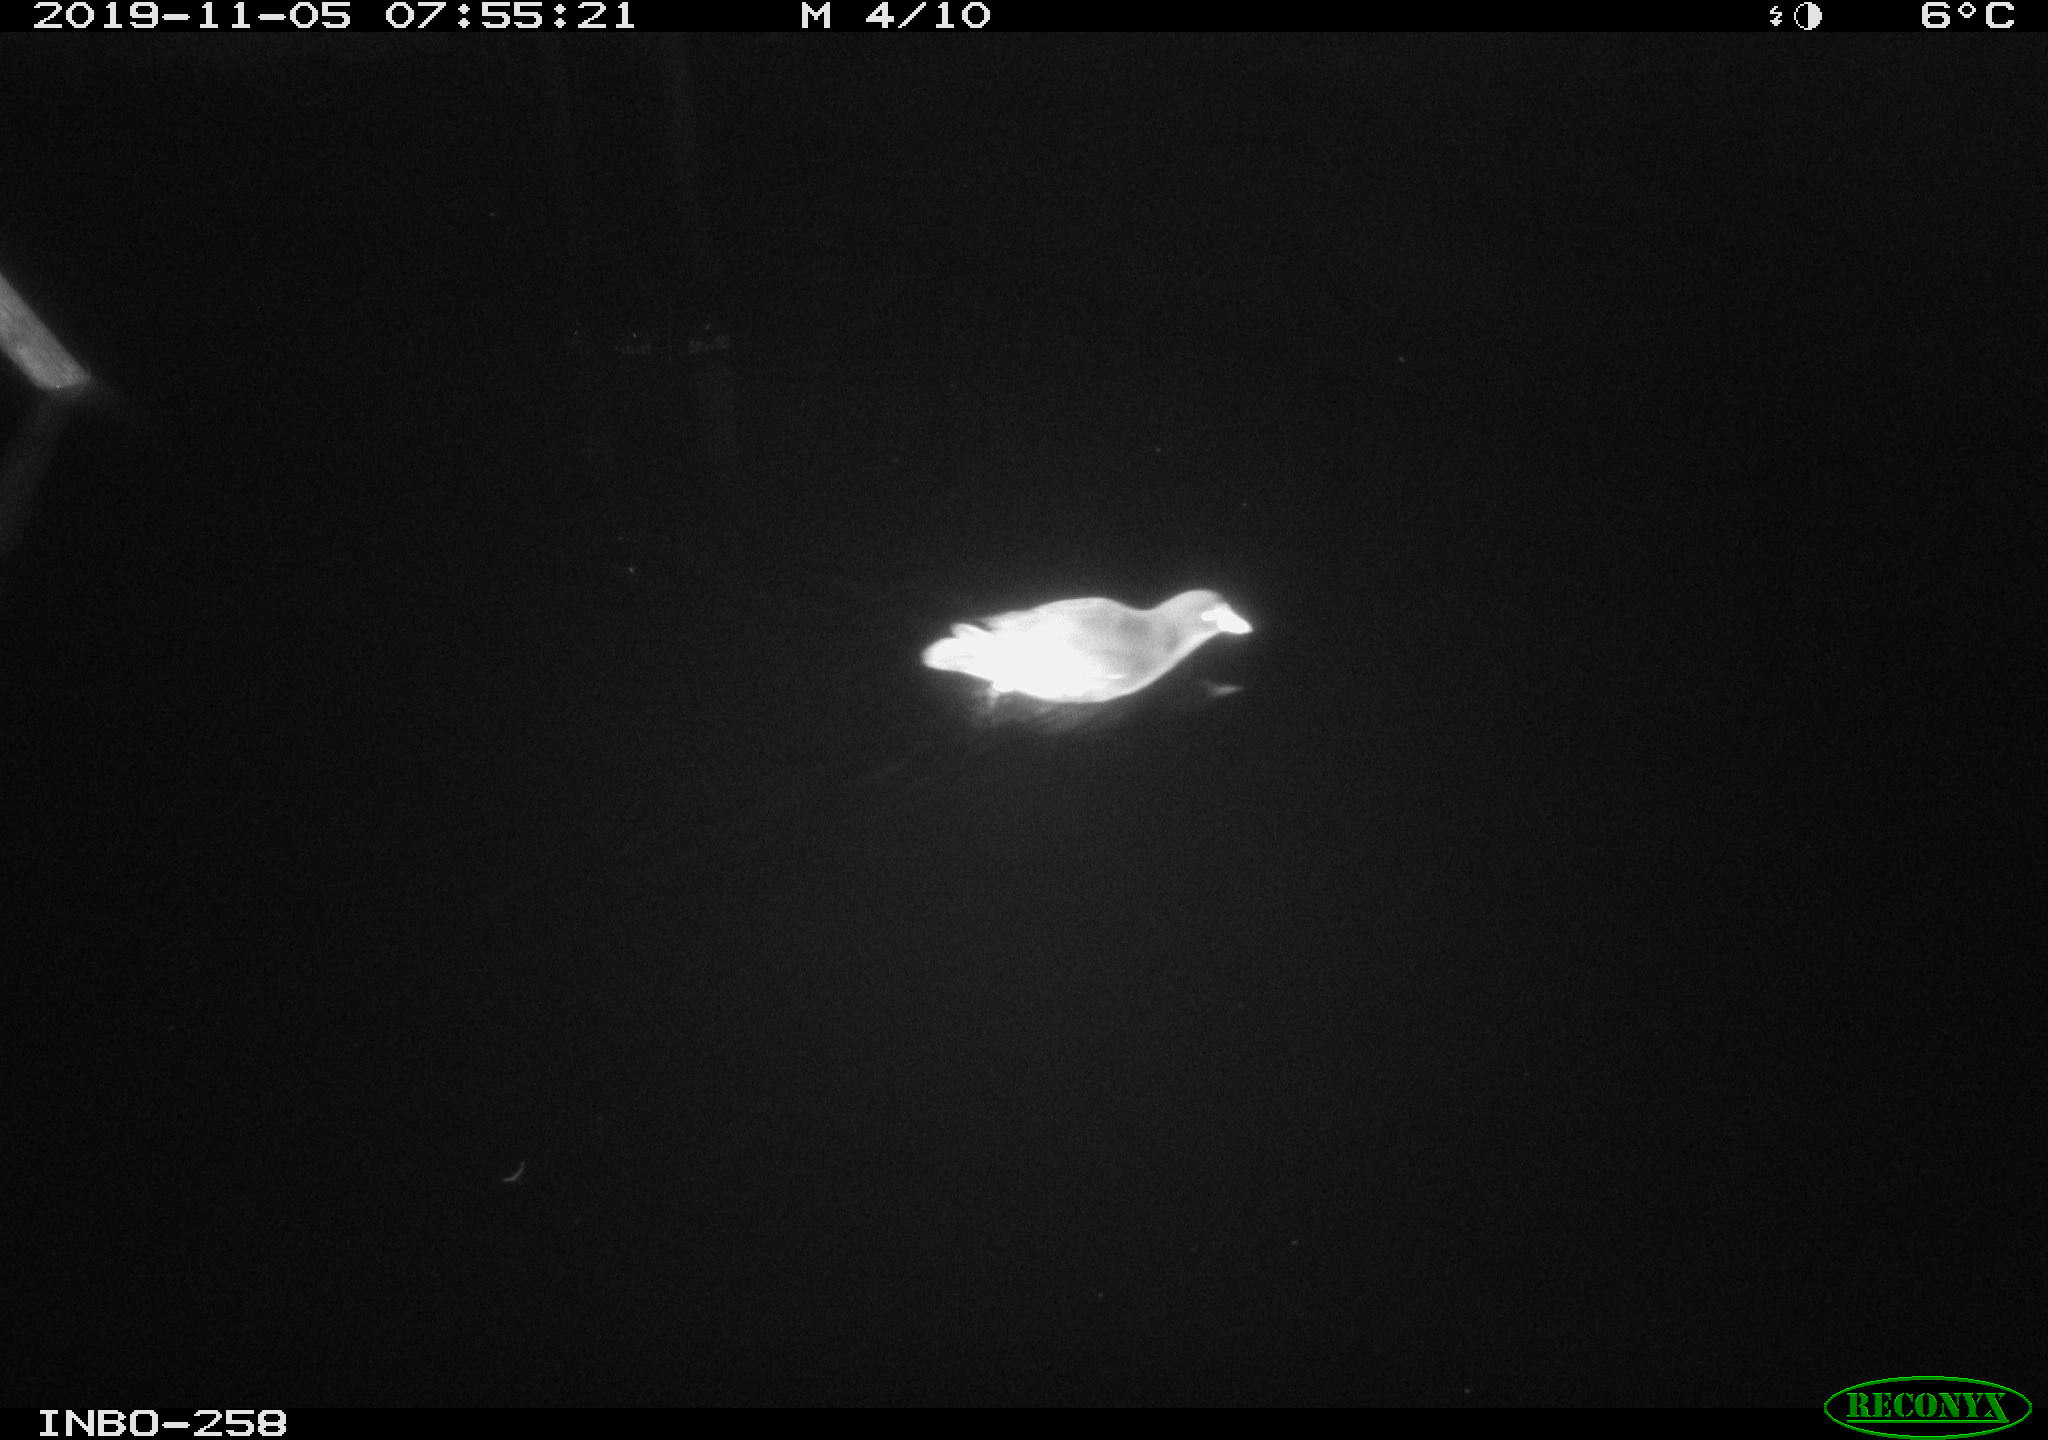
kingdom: Animalia
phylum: Chordata
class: Aves
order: Gruiformes
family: Rallidae
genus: Gallinula
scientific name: Gallinula chloropus
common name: Common moorhen
